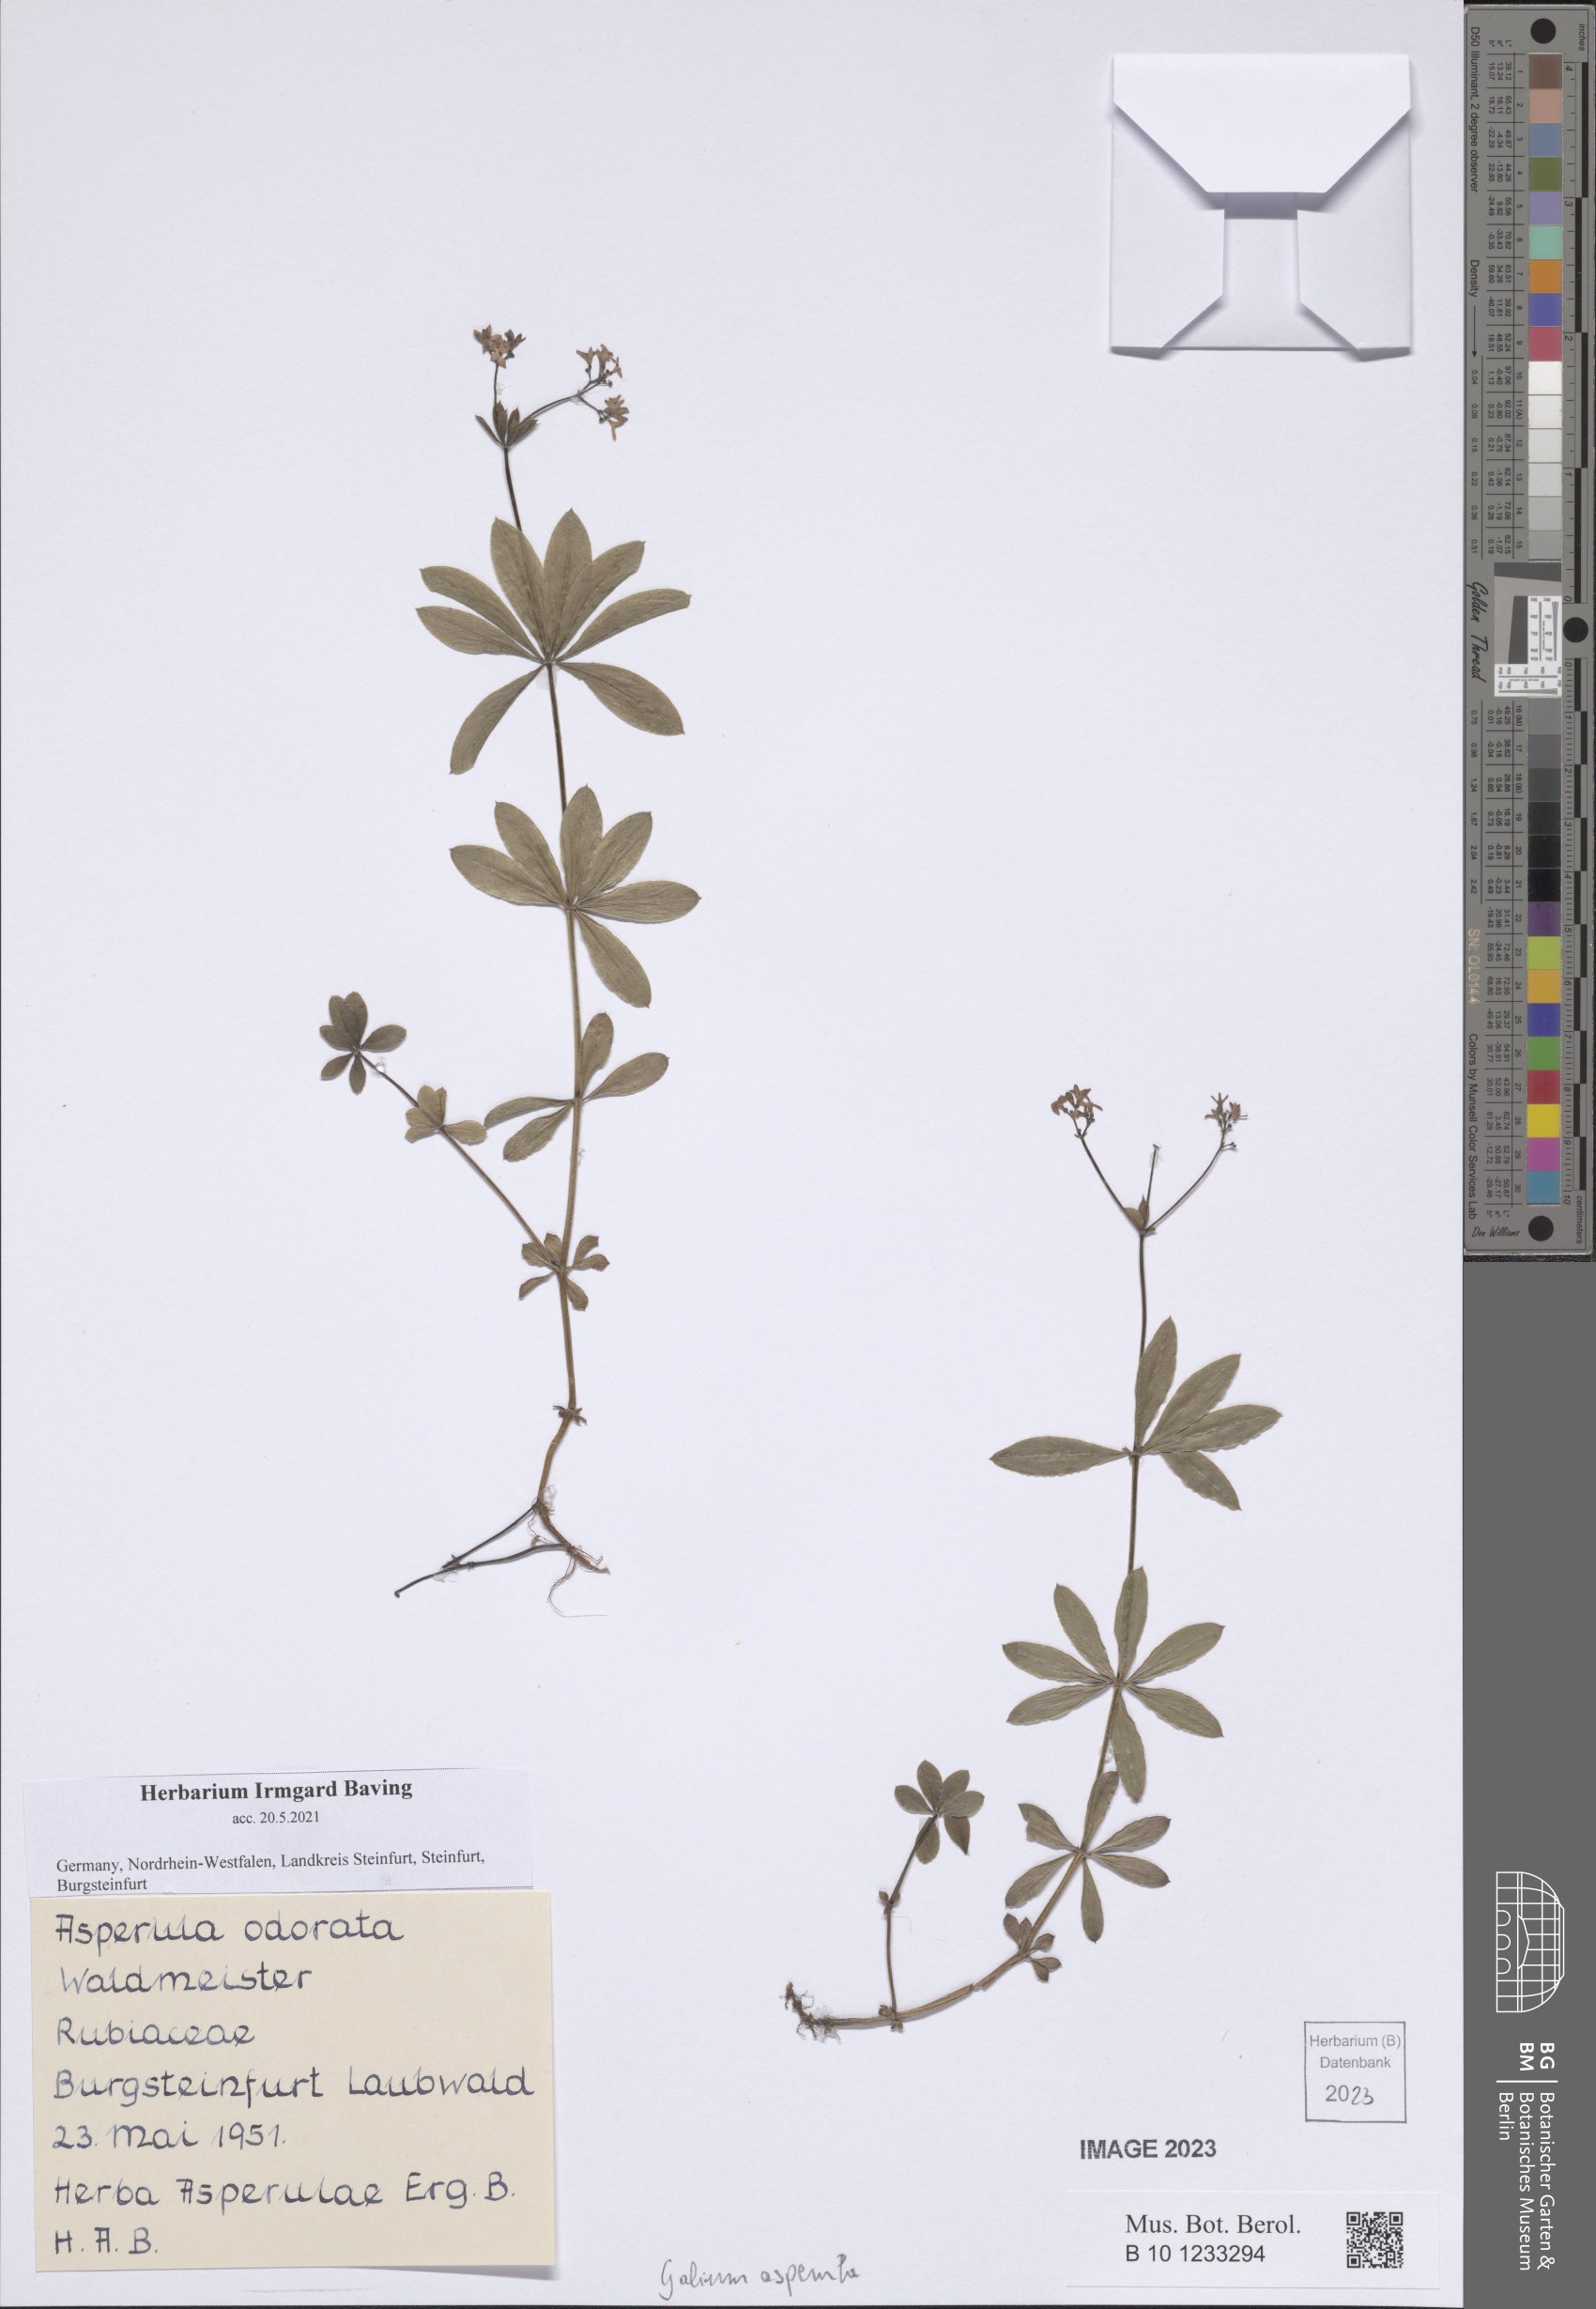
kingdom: Plantae
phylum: Tracheophyta
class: Magnoliopsida
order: Gentianales
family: Rubiaceae
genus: Galium
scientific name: Galium odoratum
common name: Sweet woodruff
